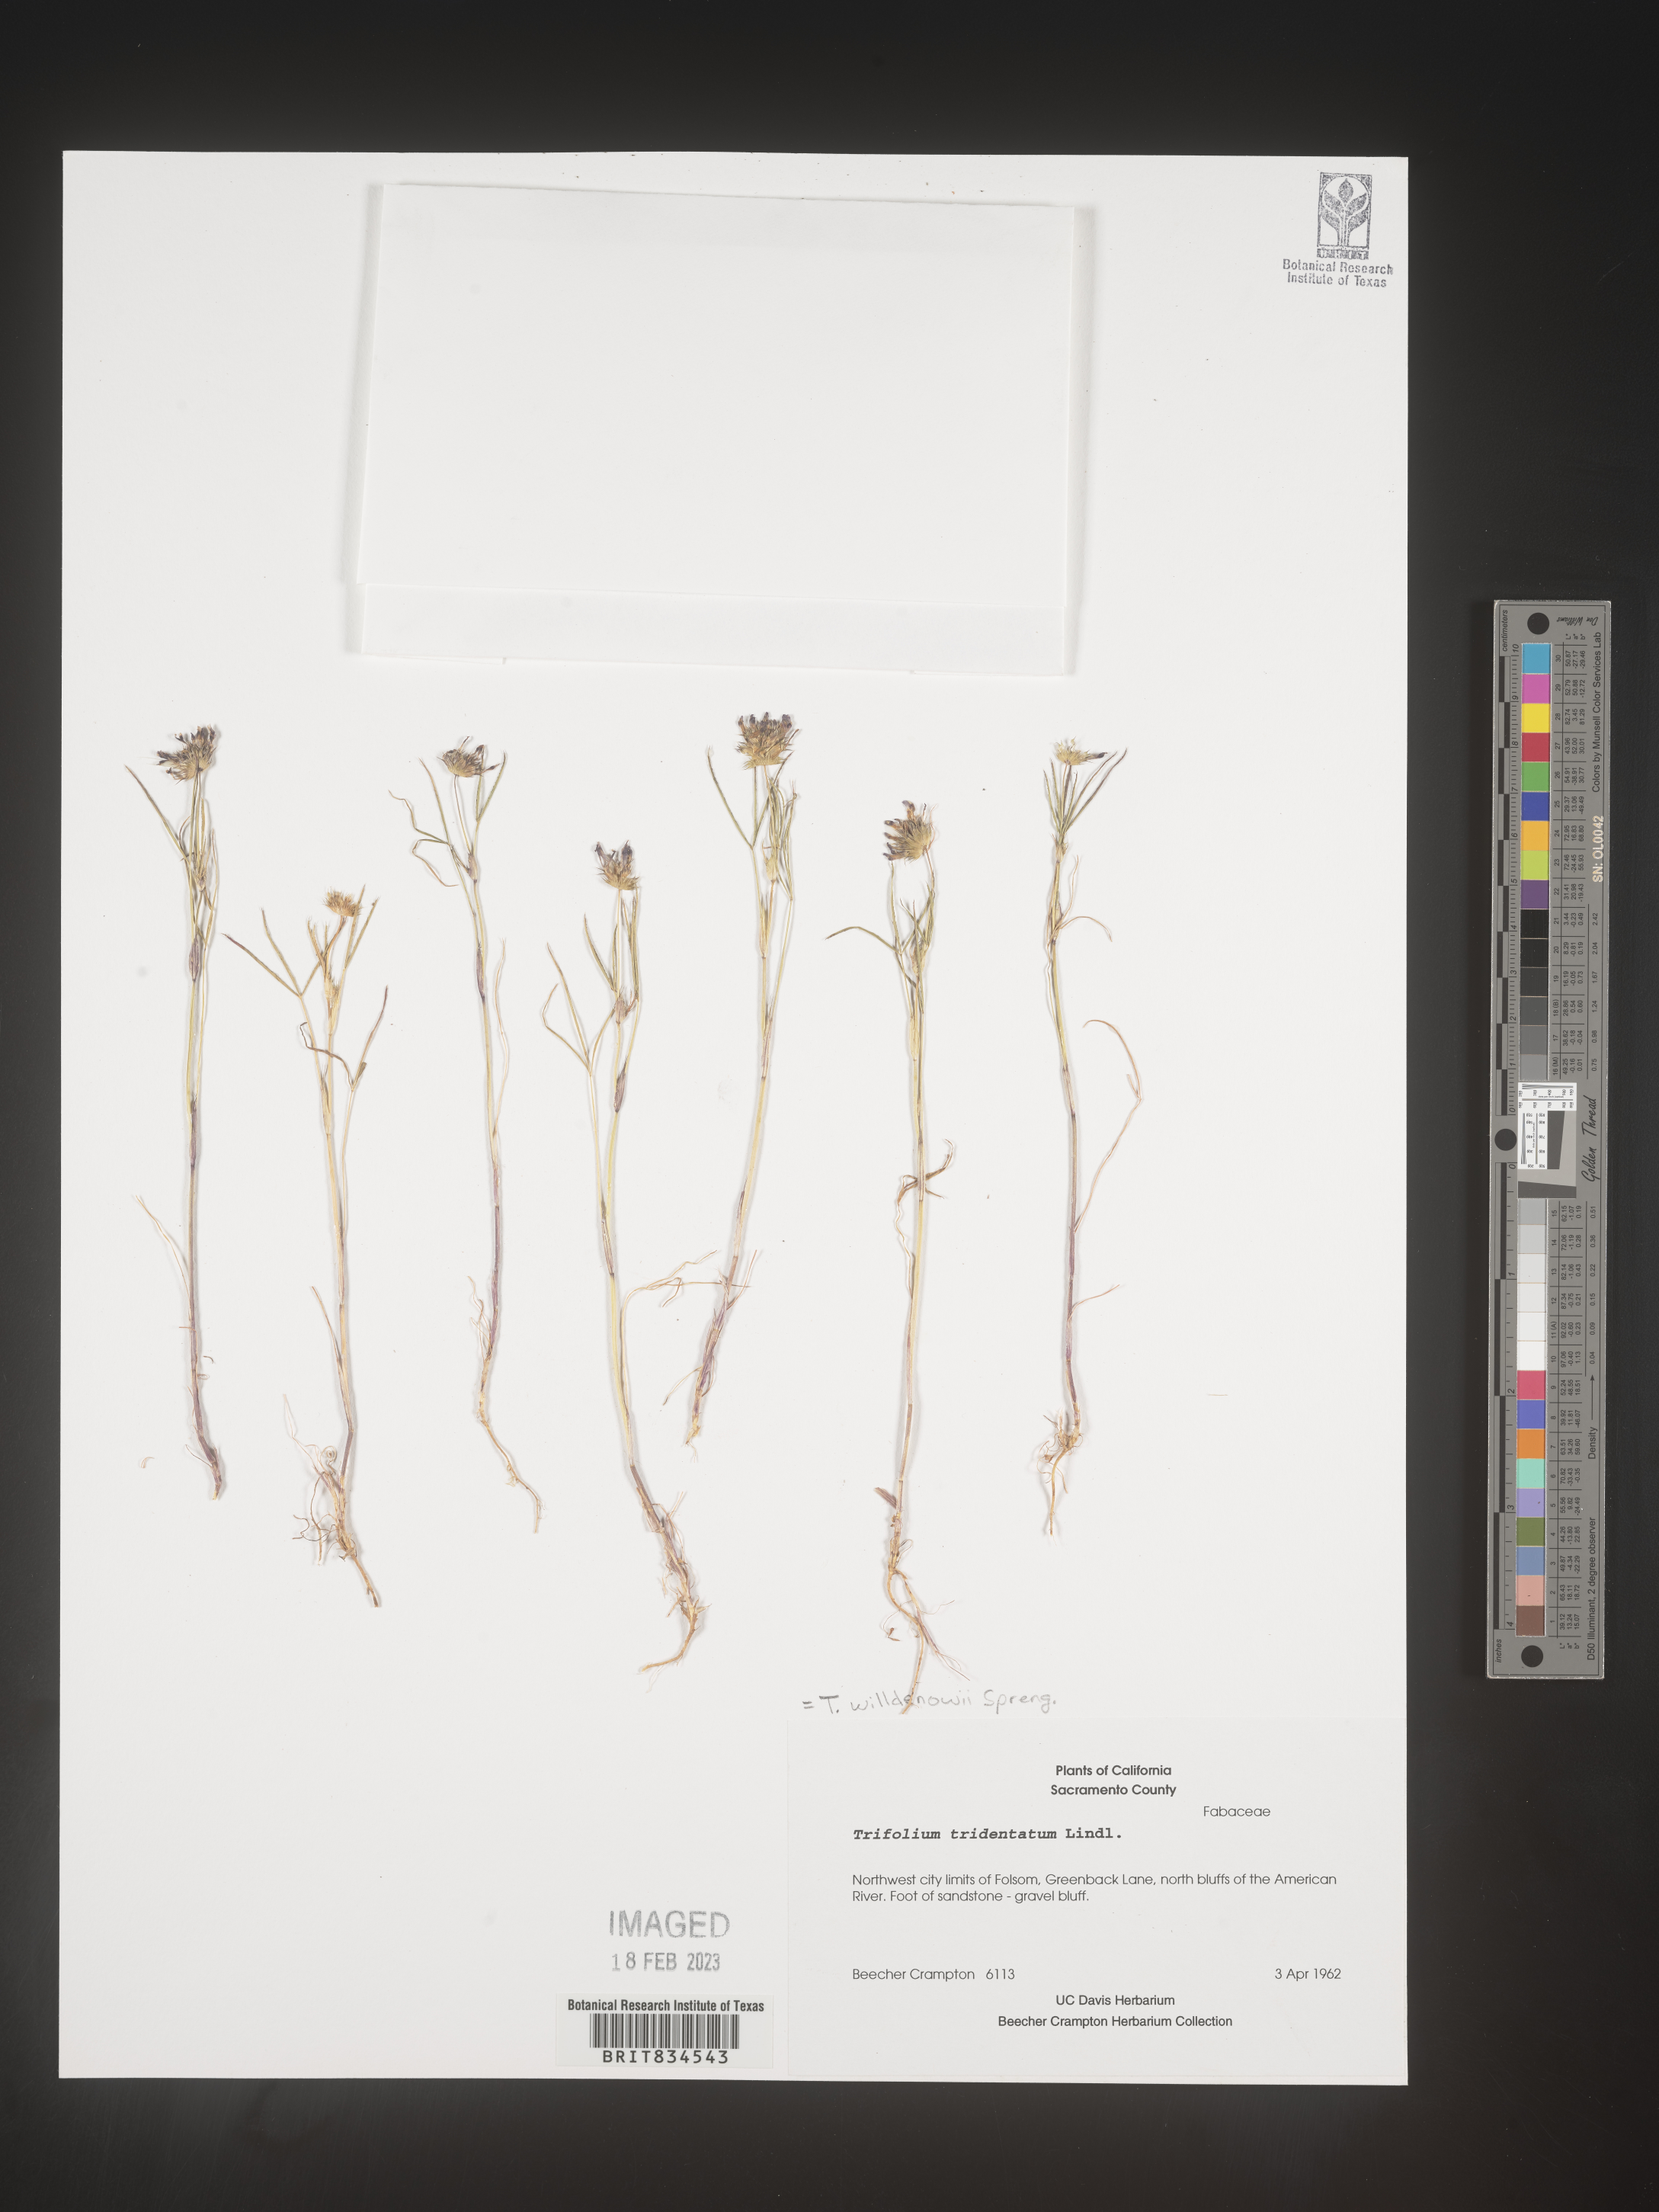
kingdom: Plantae
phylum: Tracheophyta
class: Magnoliopsida
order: Fabales
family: Fabaceae
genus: Trifolium
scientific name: Trifolium
